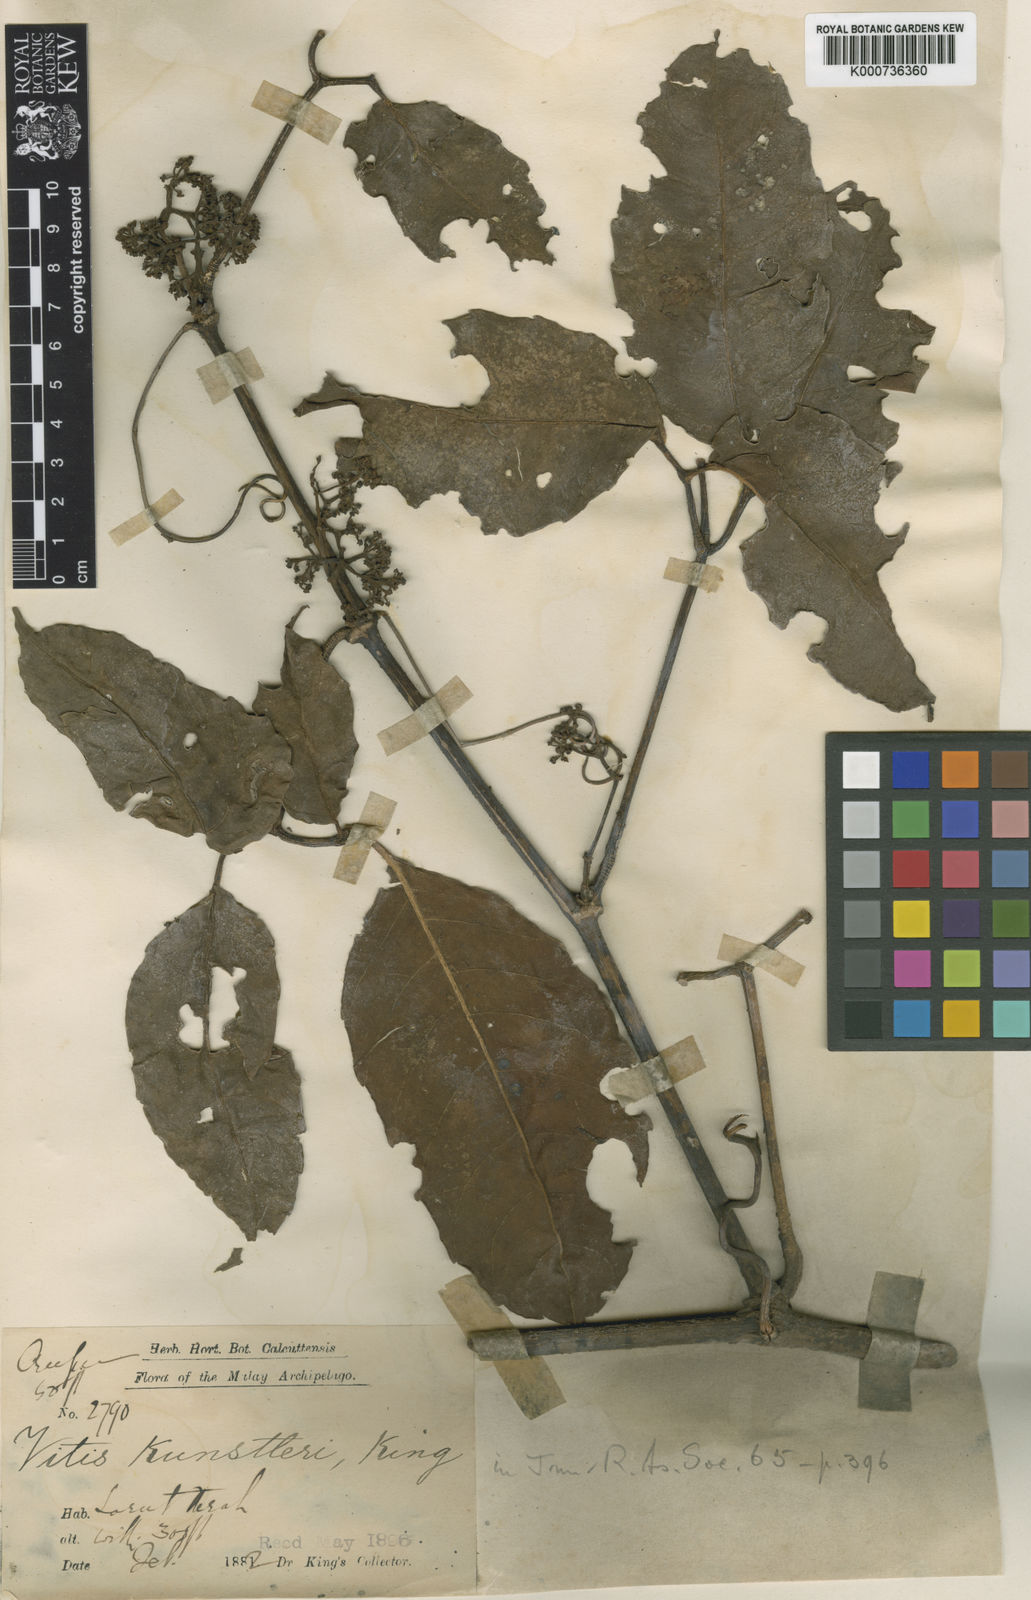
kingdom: Plantae
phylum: Tracheophyta
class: Magnoliopsida
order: Vitales
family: Vitaceae
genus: Tetrastigma
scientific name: Tetrastigma leucostaphylum
